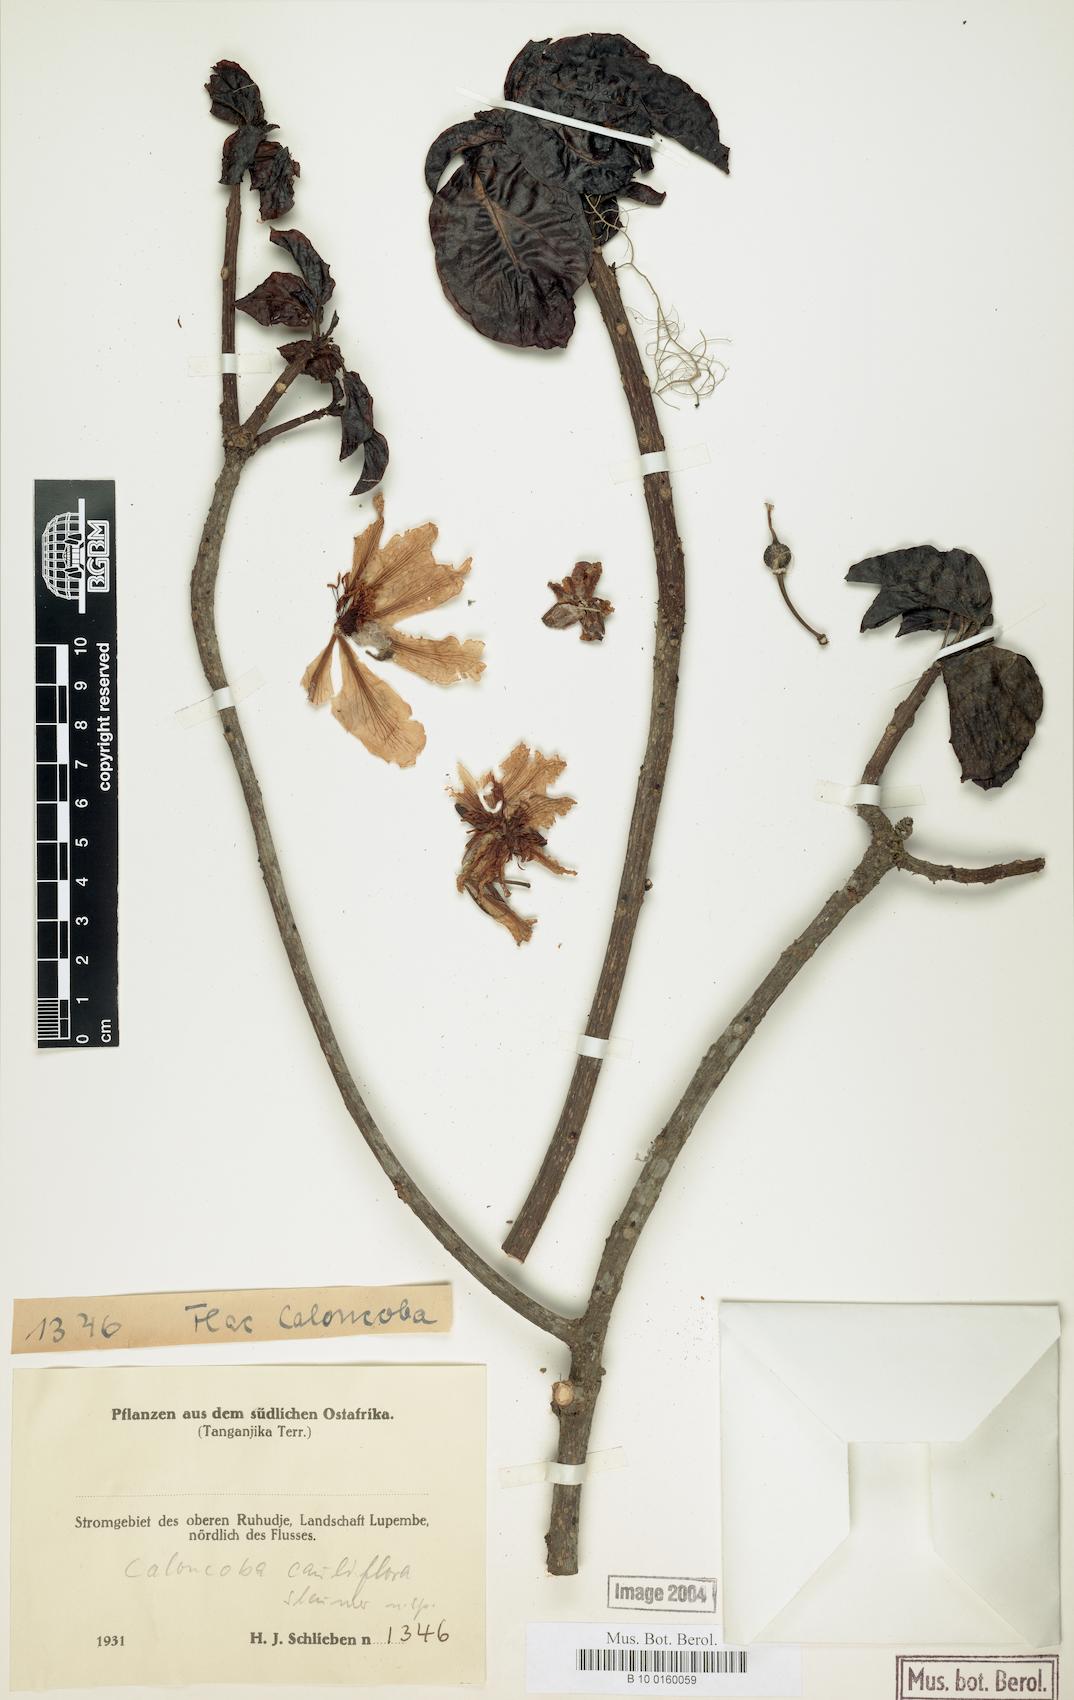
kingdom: Plantae
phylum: Tracheophyta
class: Magnoliopsida
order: Malpighiales
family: Achariaceae
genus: Caloncoba
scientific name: Caloncoba welwitschii
